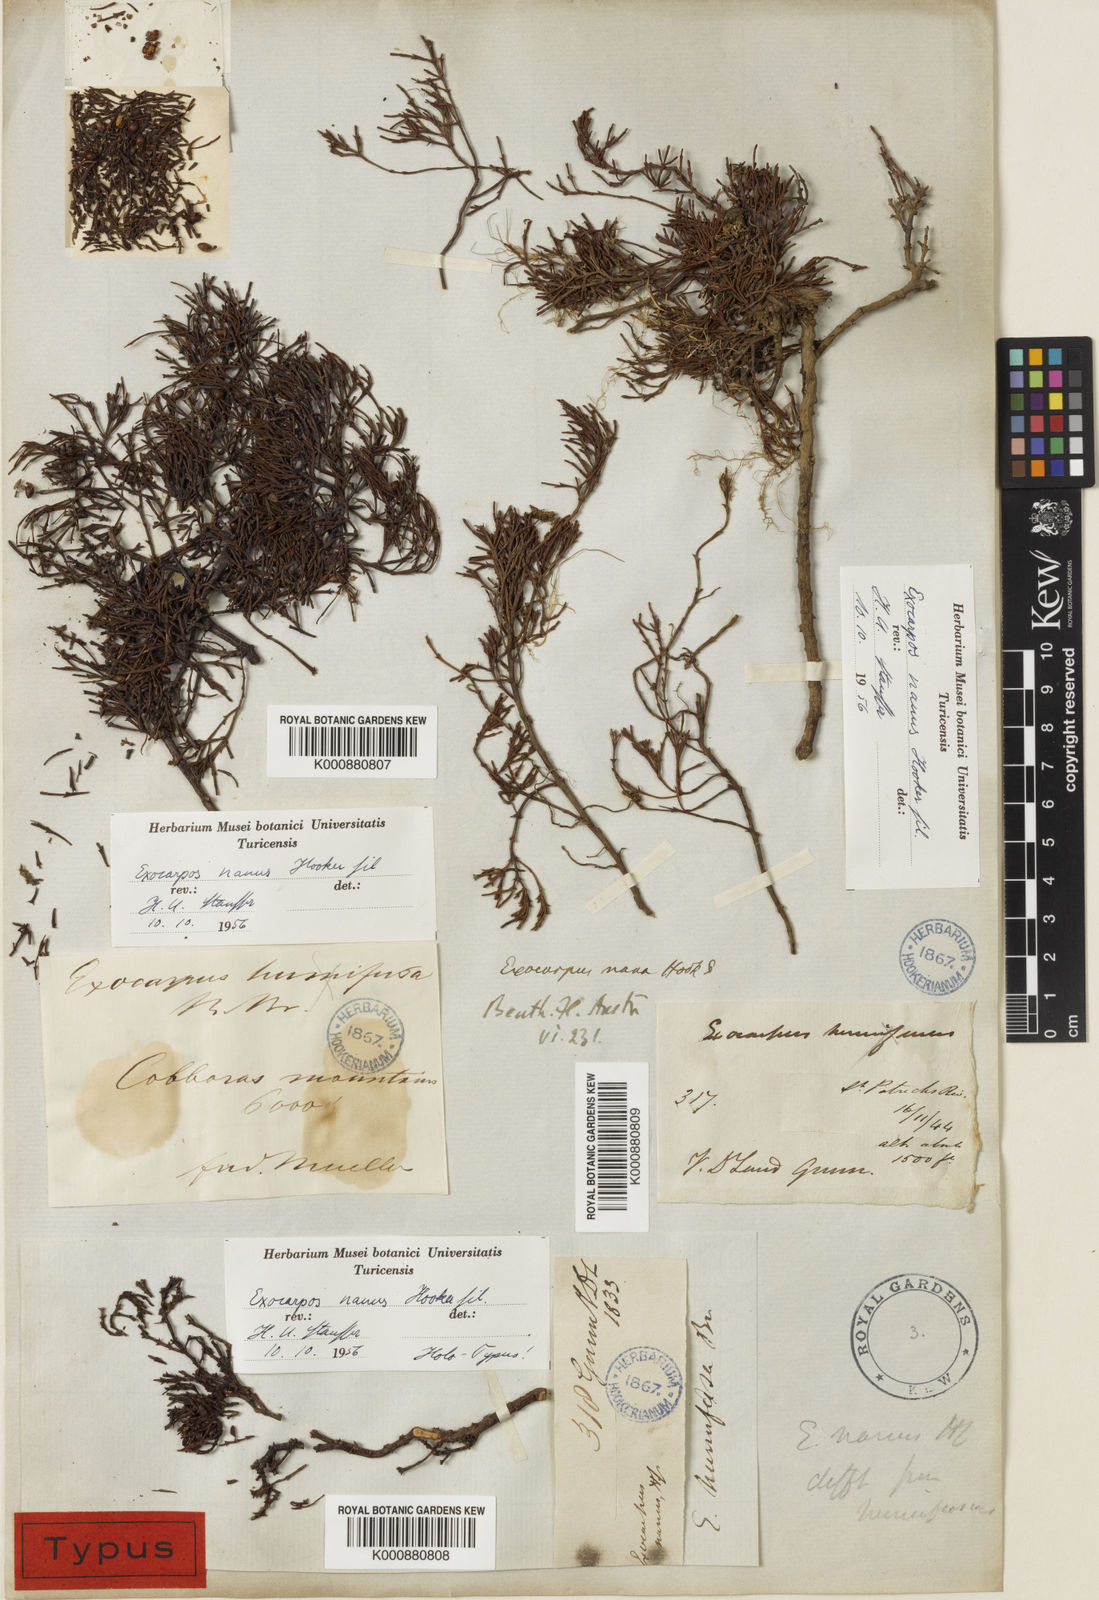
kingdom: Plantae
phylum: Tracheophyta
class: Magnoliopsida
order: Santalales
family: Santalaceae
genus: Exocarpos
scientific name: Exocarpos nanus
